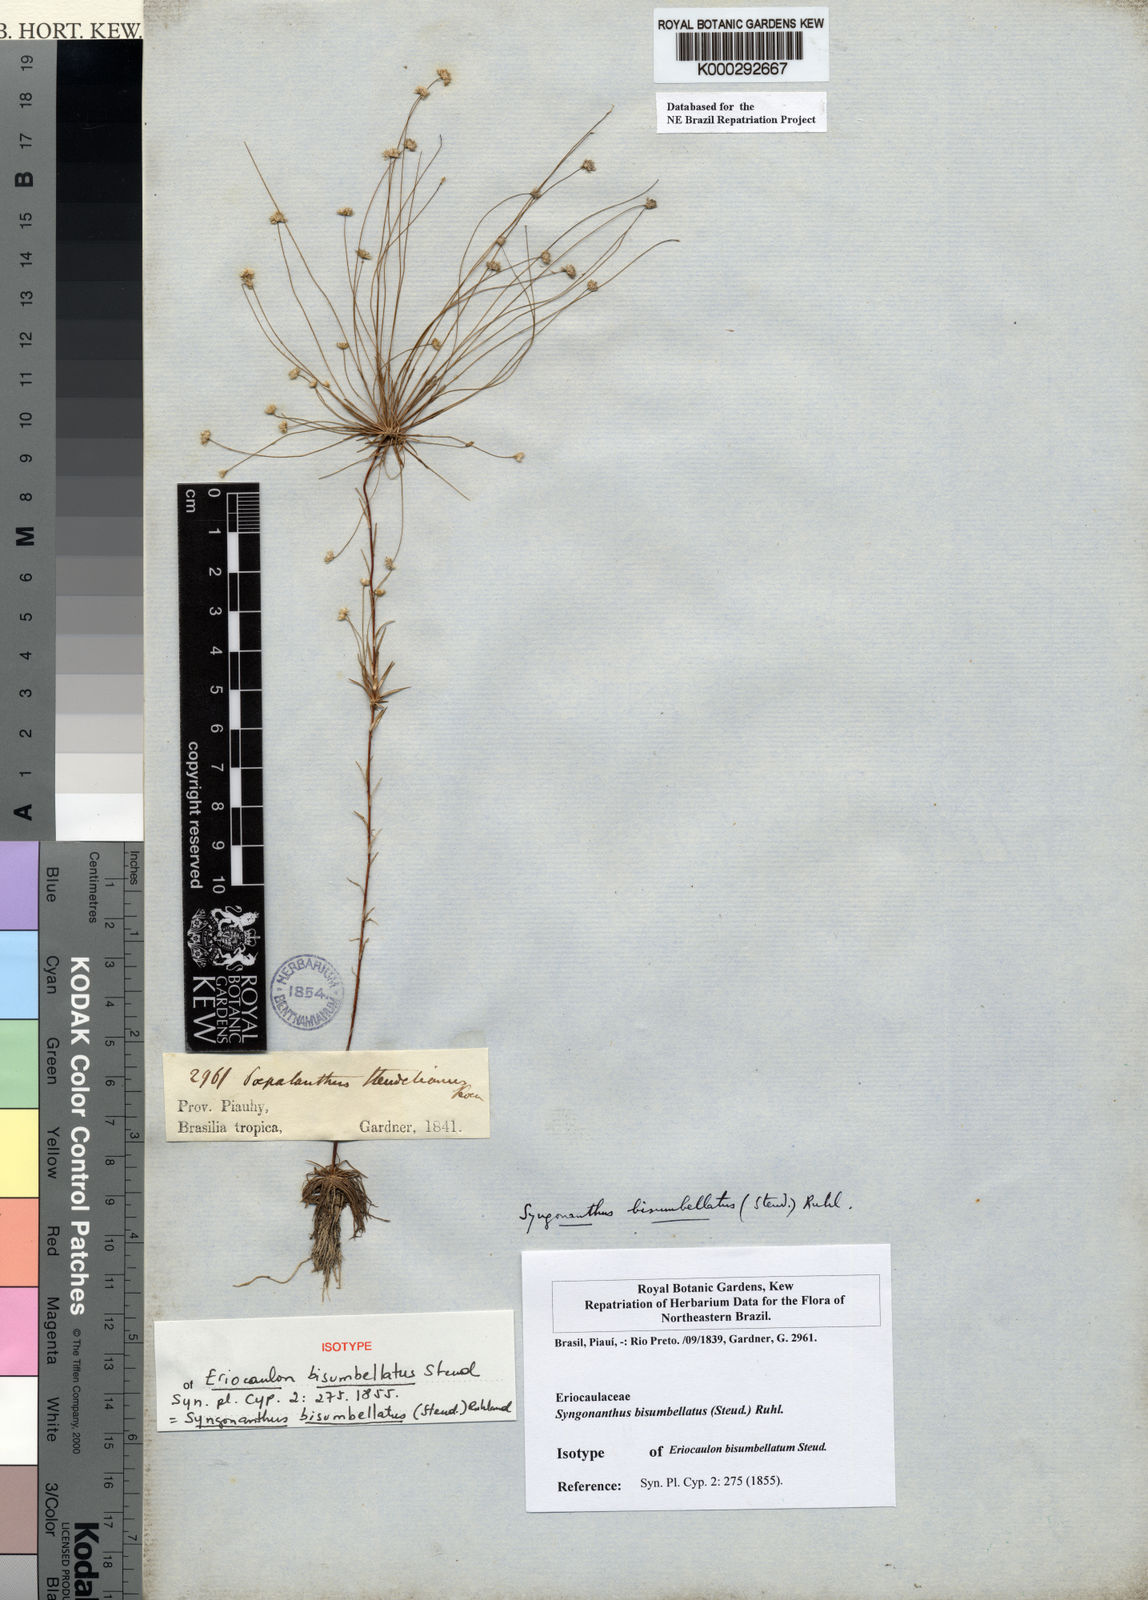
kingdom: Plantae
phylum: Tracheophyta
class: Liliopsida
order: Poales
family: Eriocaulaceae
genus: Syngonanthus
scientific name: Syngonanthus bisumbellatus
